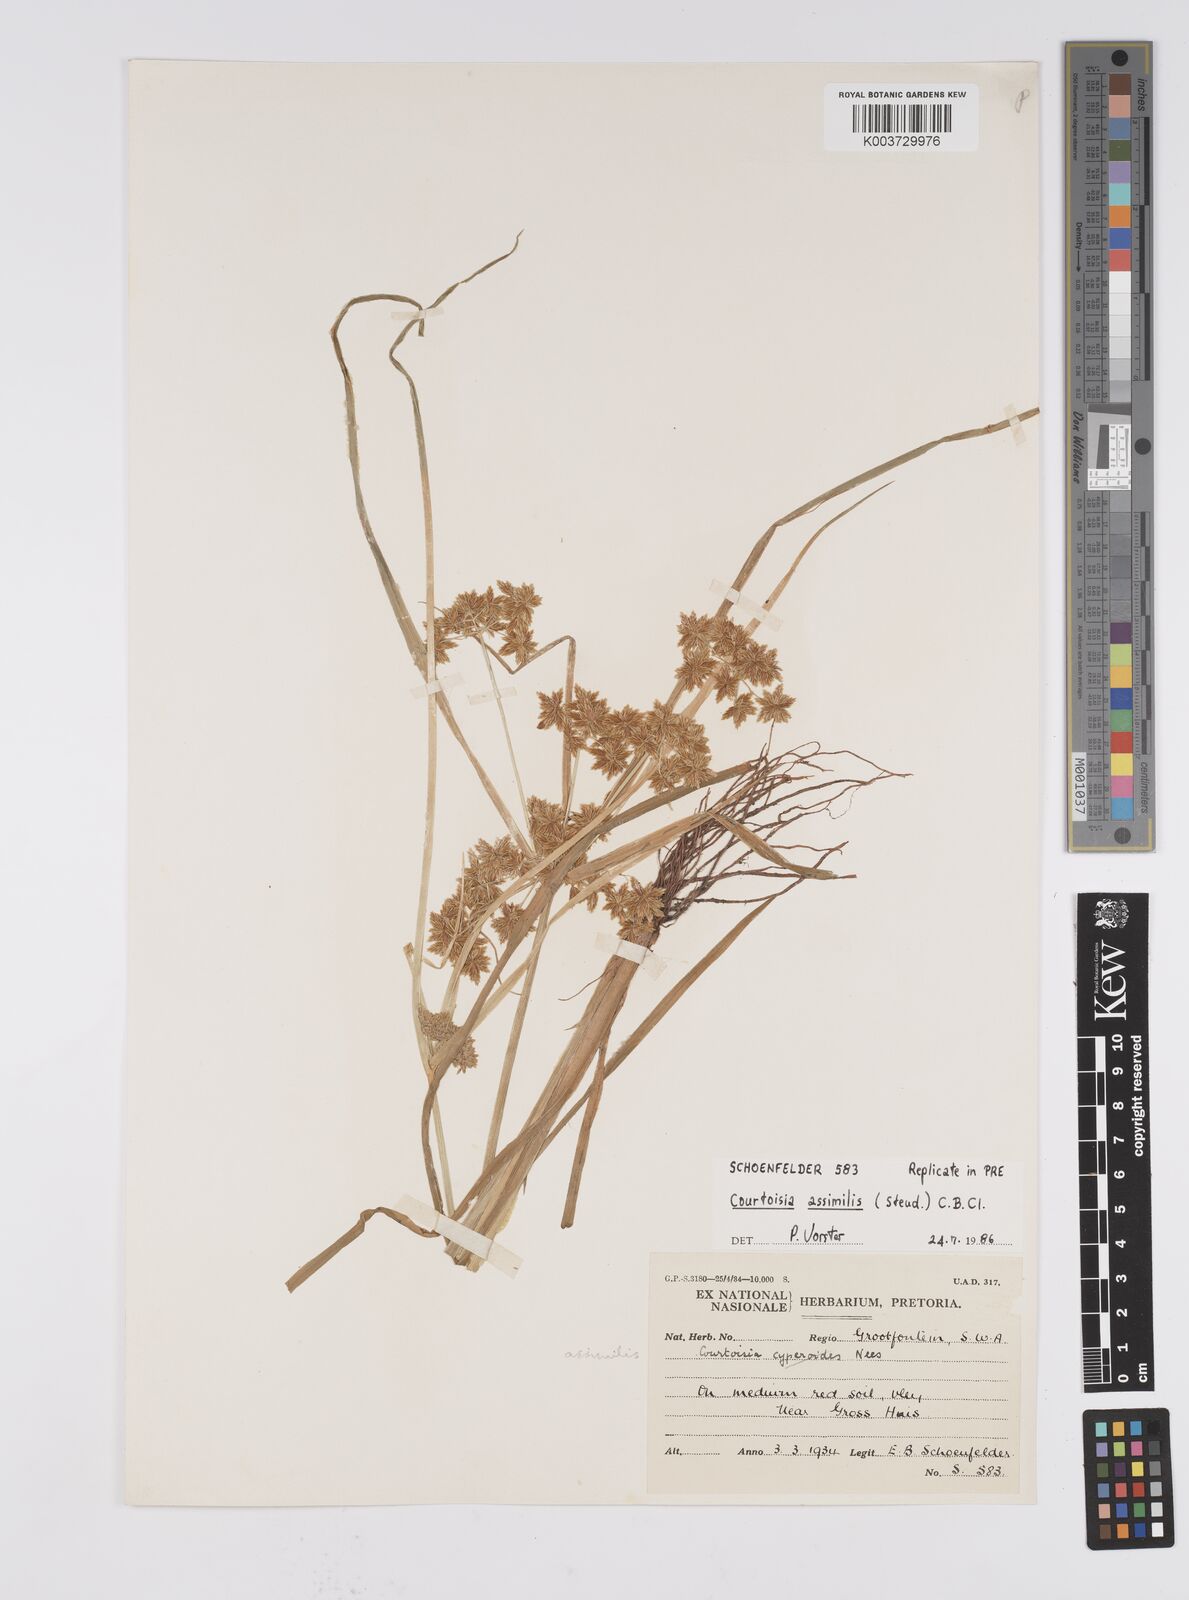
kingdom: Plantae
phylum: Tracheophyta
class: Liliopsida
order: Poales
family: Cyperaceae
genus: Cyperus
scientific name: Cyperus assimilis
